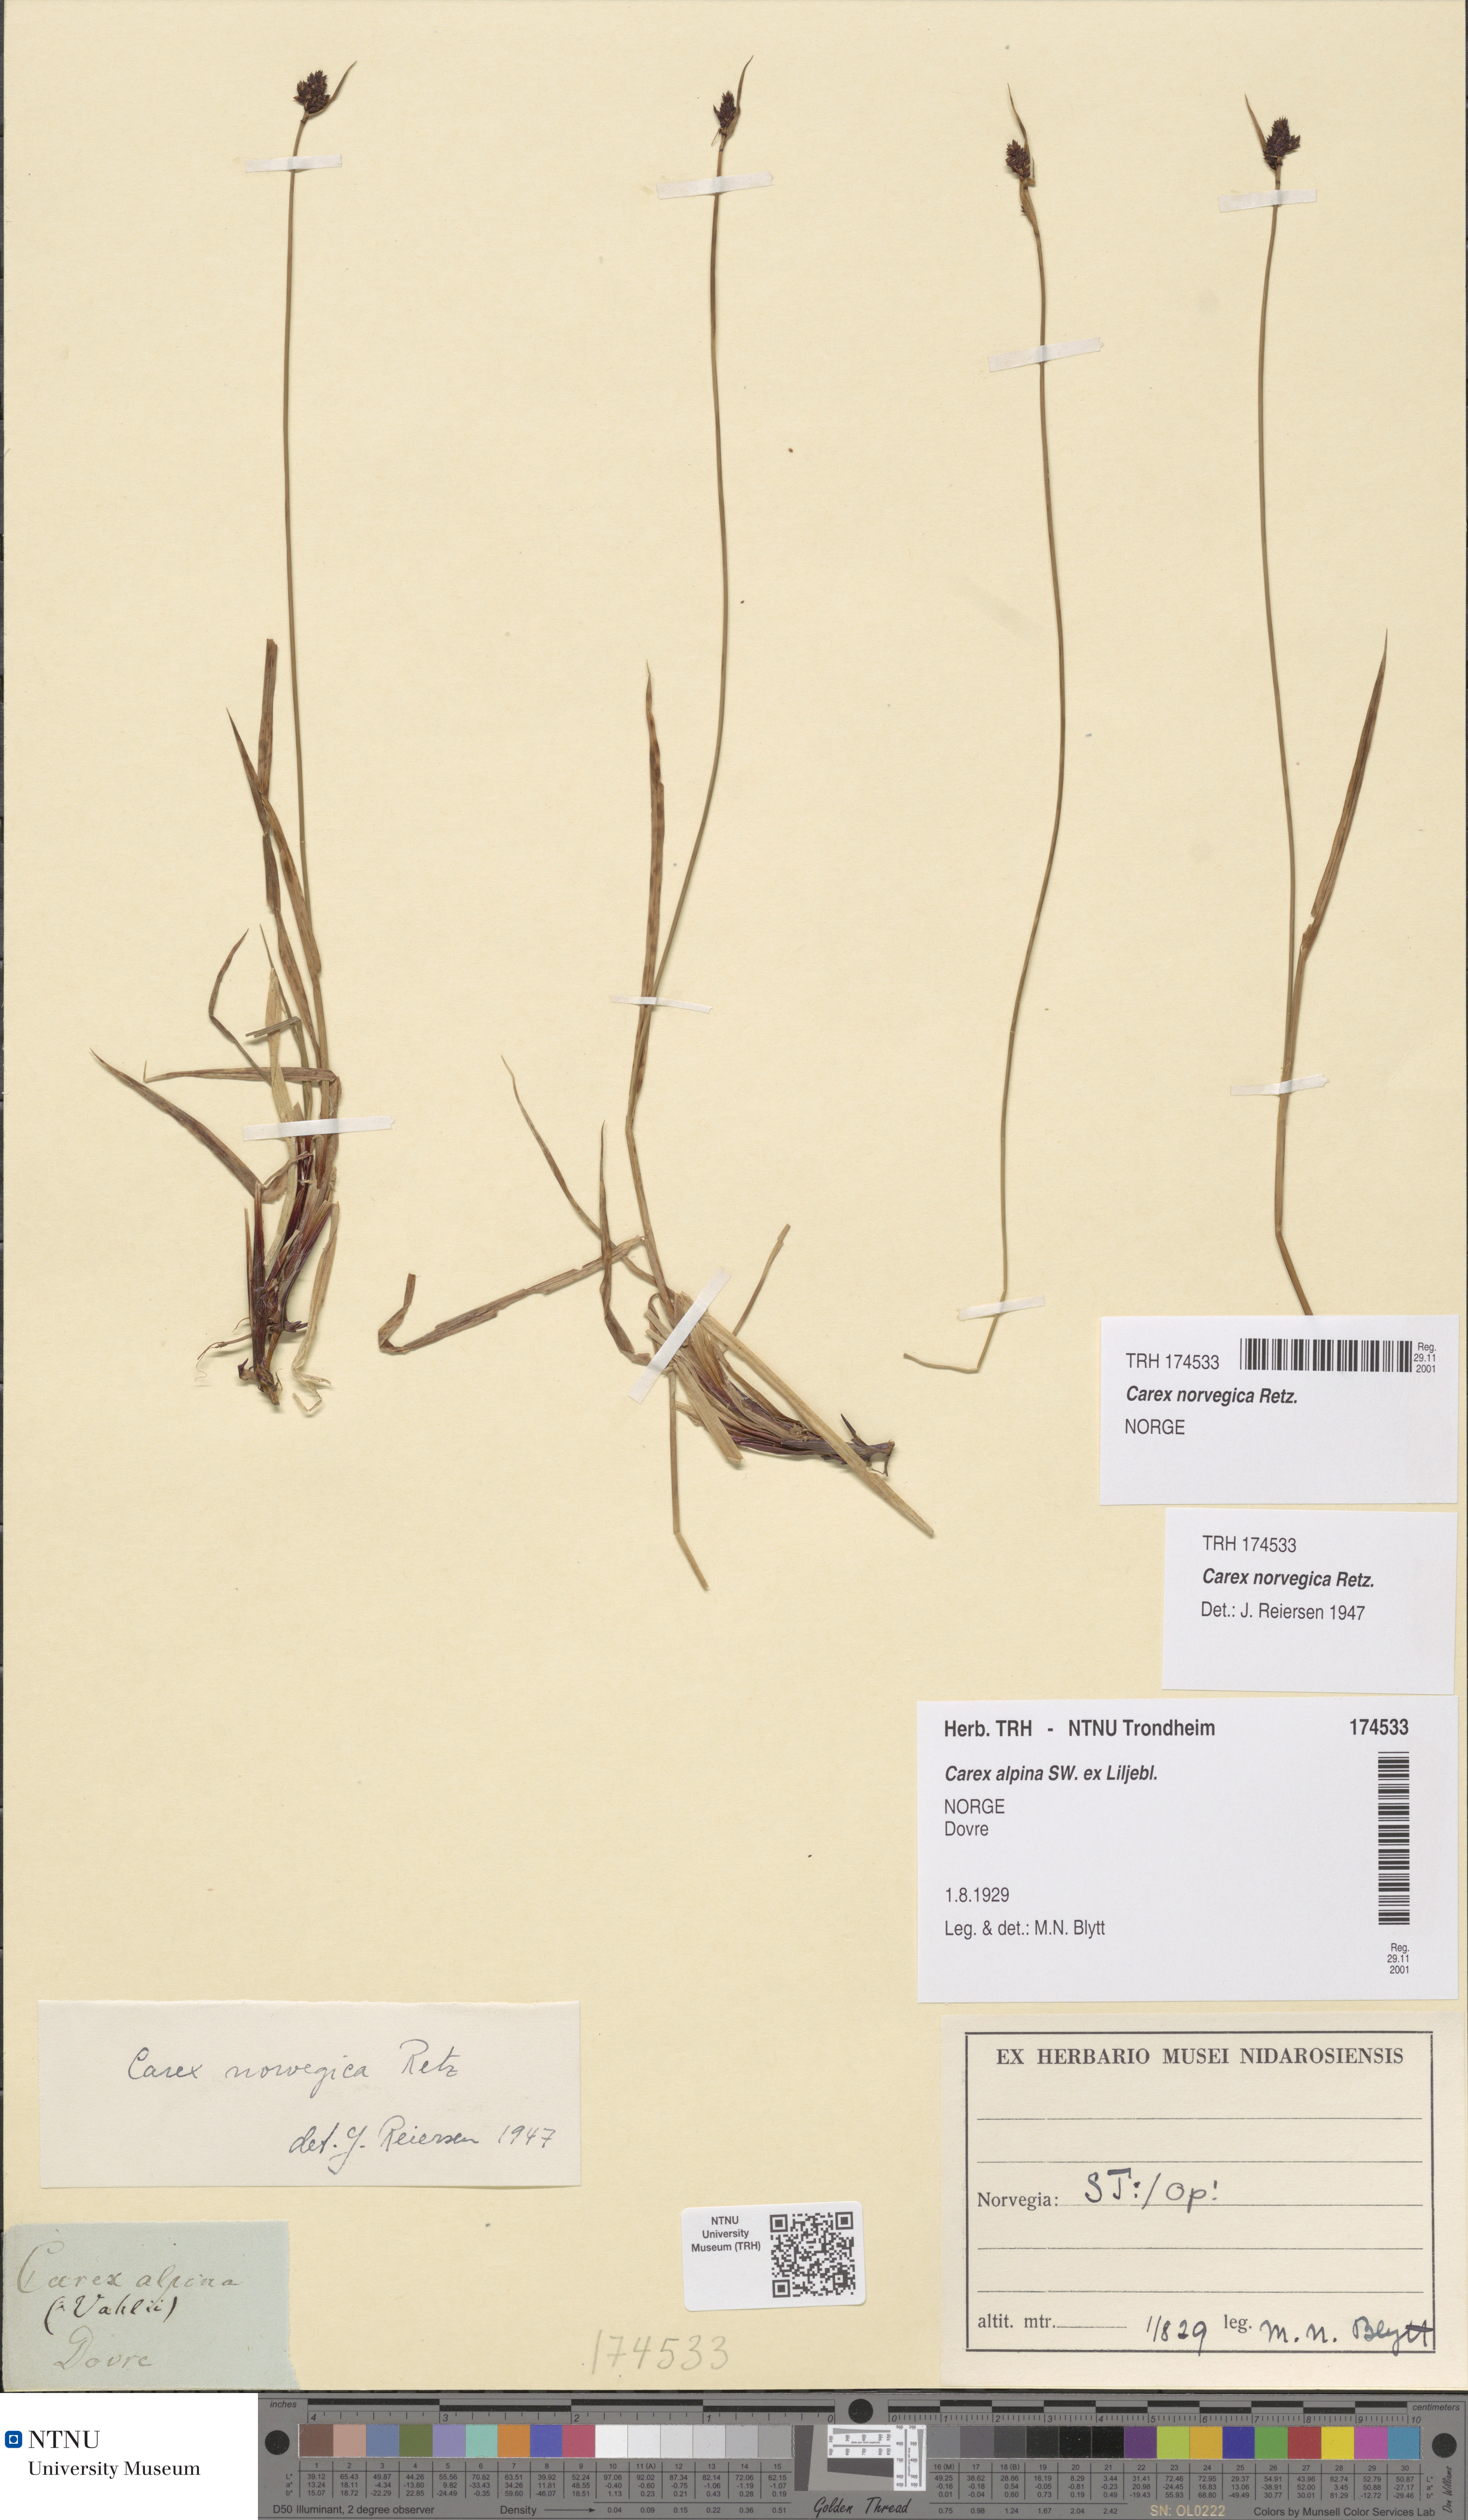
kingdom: Plantae
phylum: Tracheophyta
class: Liliopsida
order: Poales
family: Cyperaceae
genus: Carex
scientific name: Carex norvegica
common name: Close-headed alpine-sedge
